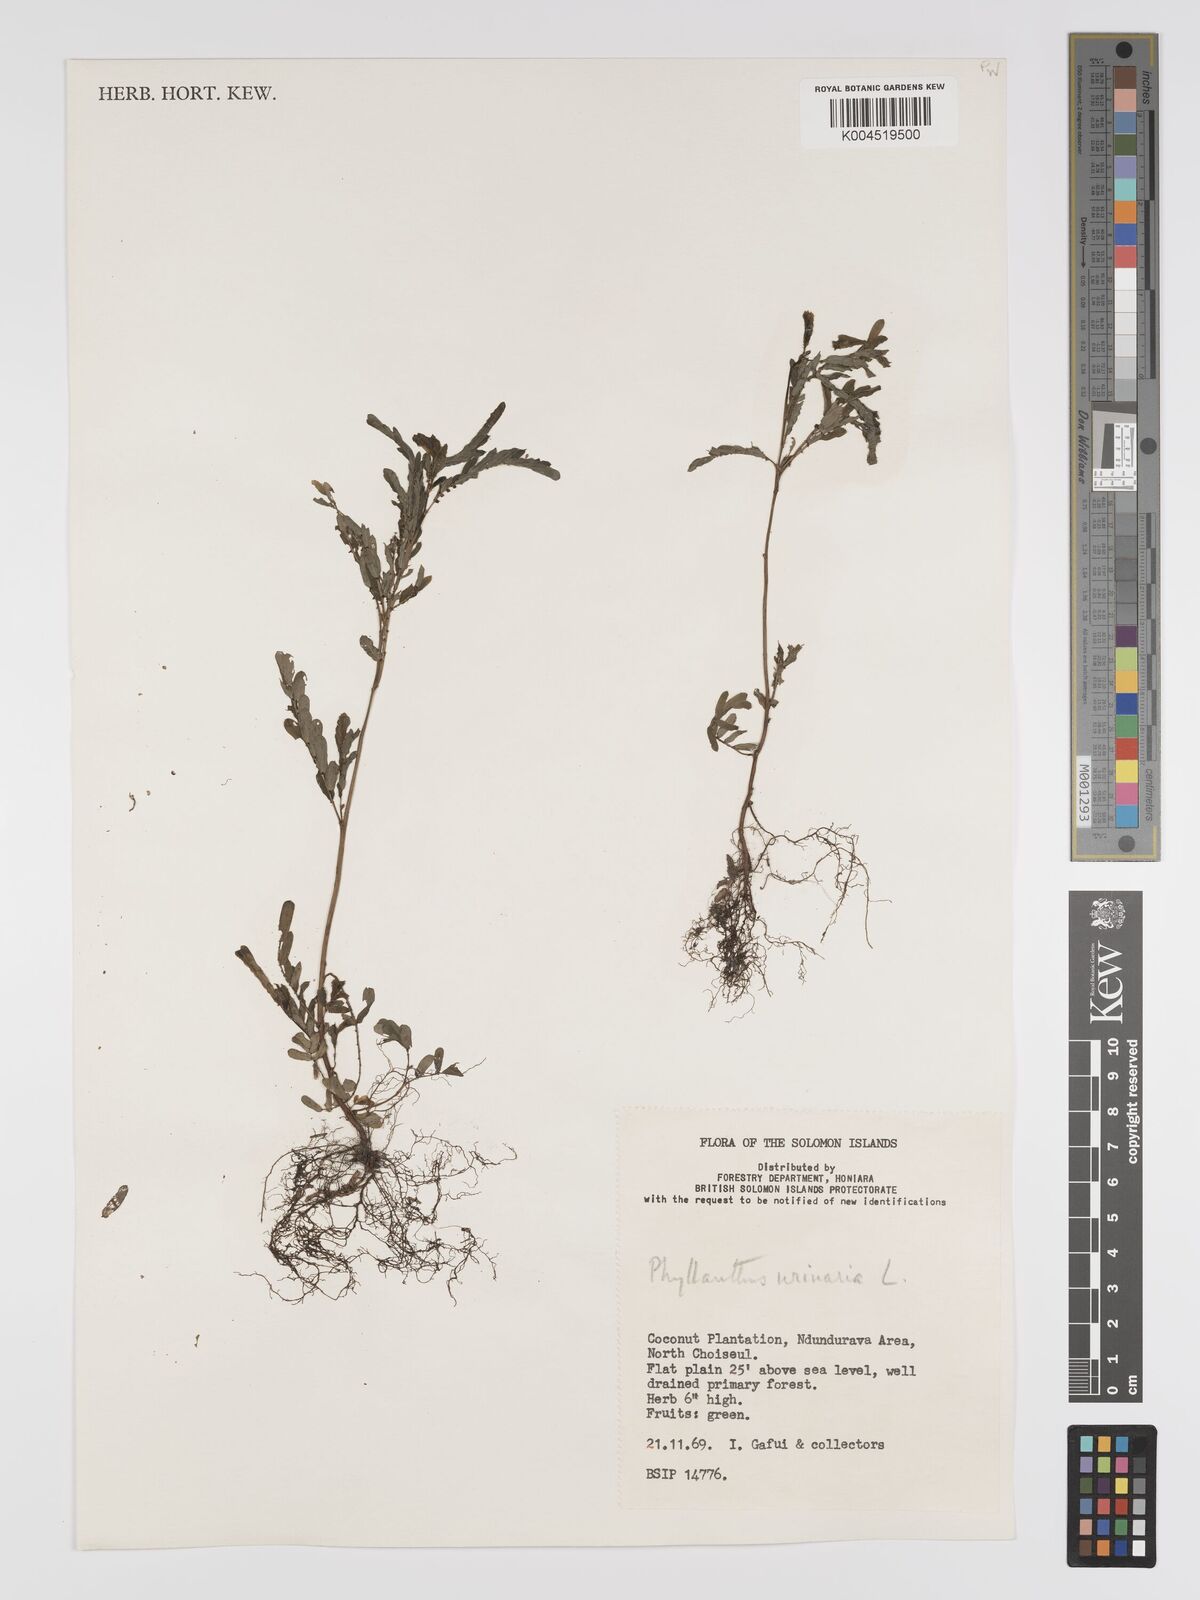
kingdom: Plantae
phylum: Tracheophyta
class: Magnoliopsida
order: Malpighiales
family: Phyllanthaceae
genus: Phyllanthus
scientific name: Phyllanthus urinaria
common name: Chamber bitter
